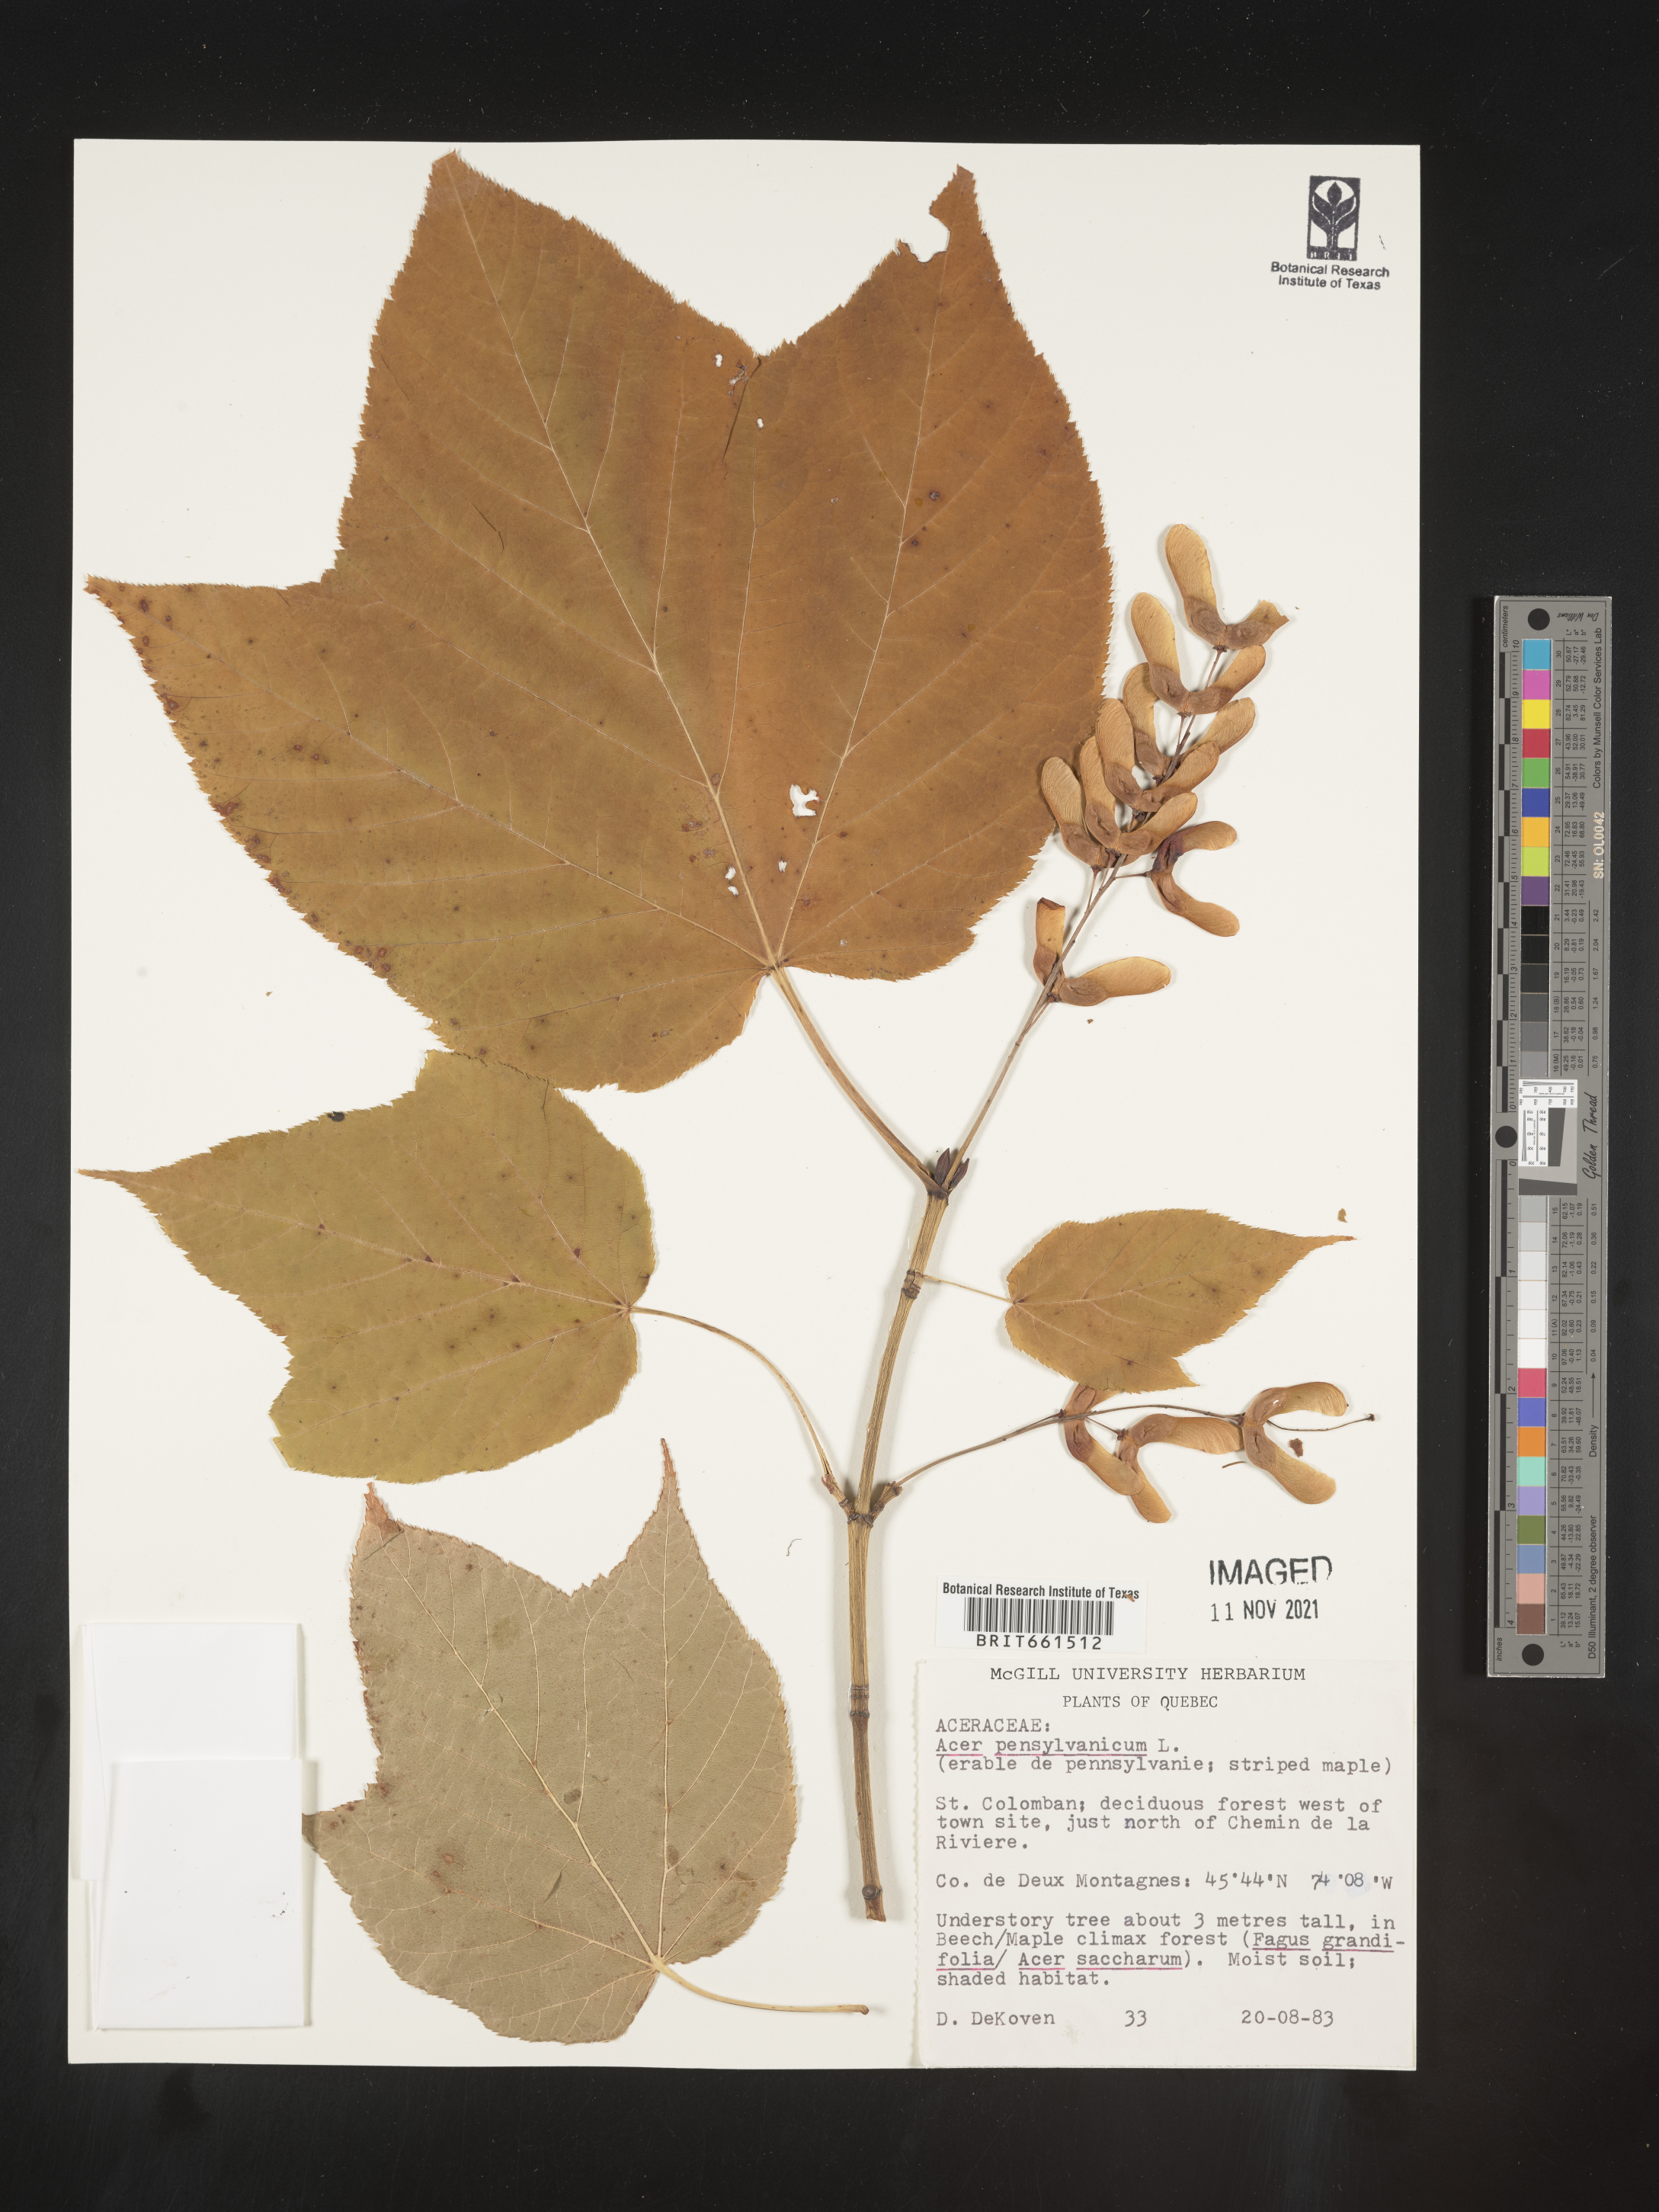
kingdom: Plantae
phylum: Tracheophyta
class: Magnoliopsida
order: Sapindales
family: Sapindaceae
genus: Acer
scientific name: Acer pensylvanicum
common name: Moosewood
